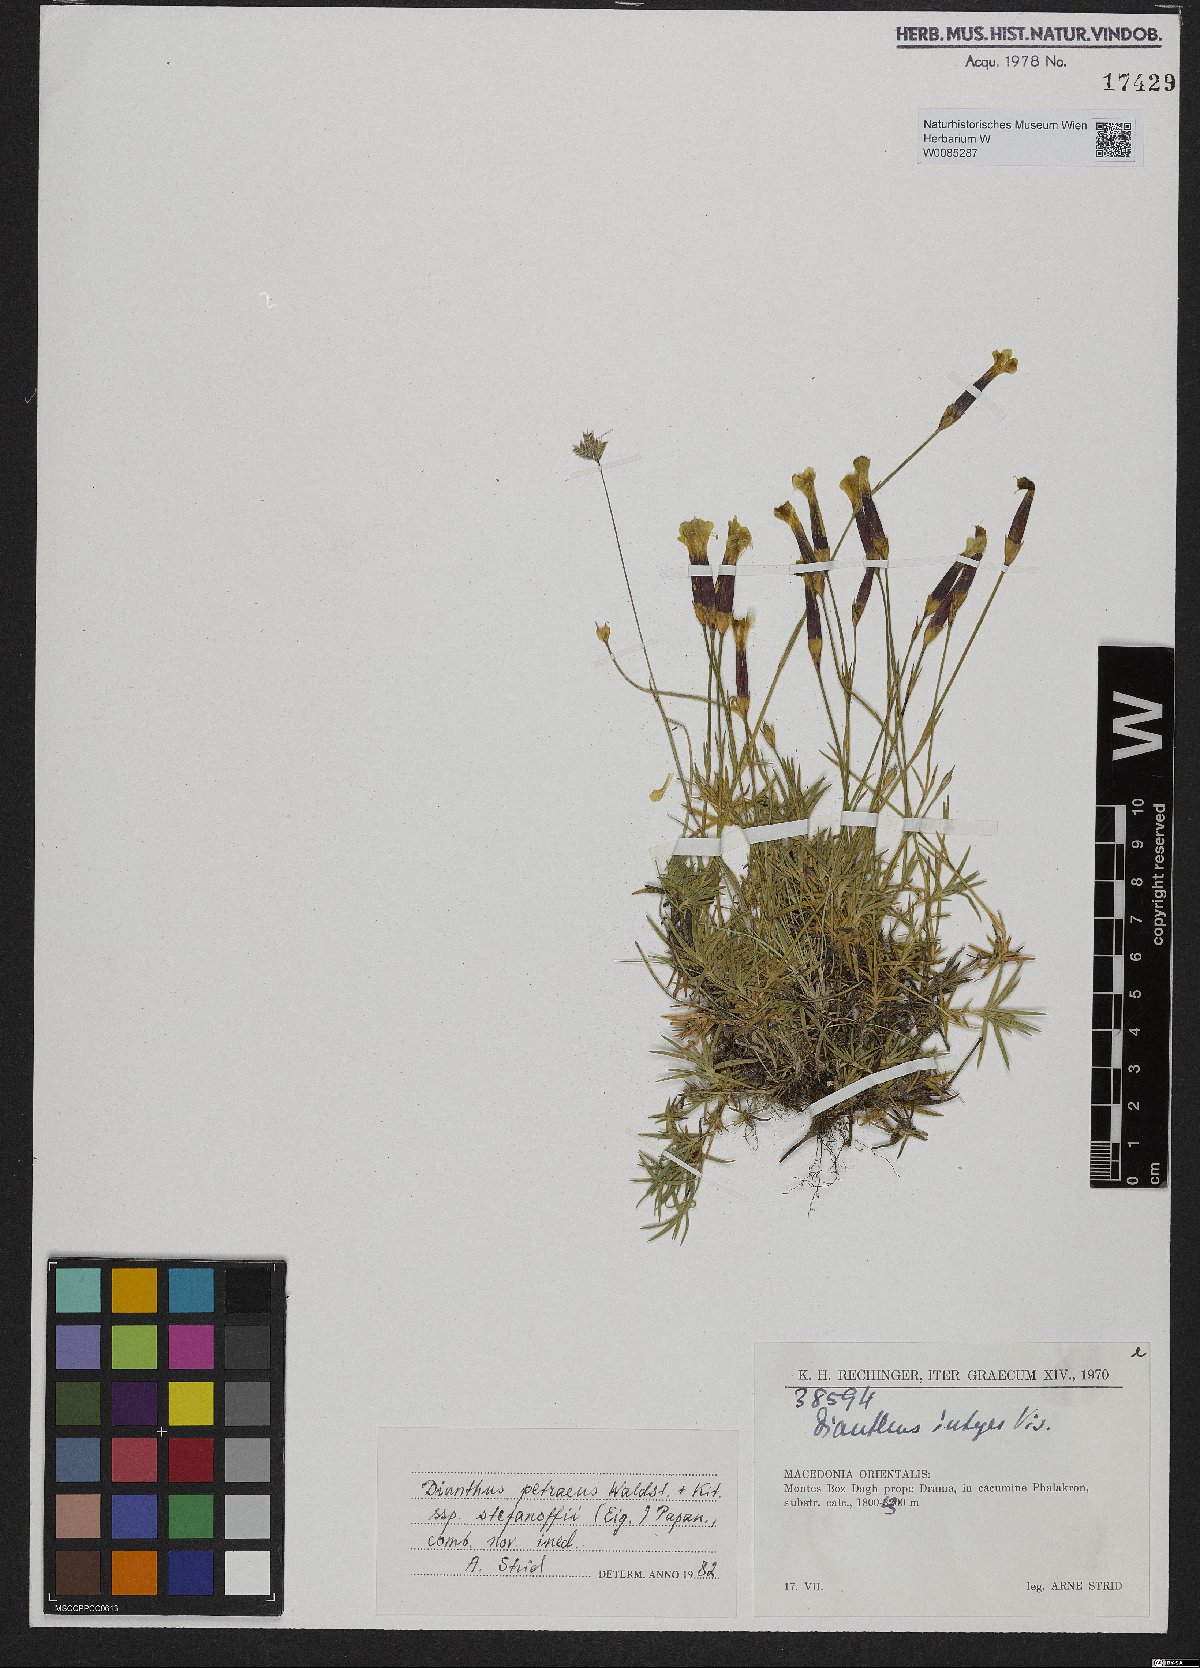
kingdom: Plantae
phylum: Tracheophyta
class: Magnoliopsida
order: Caryophyllales
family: Caryophyllaceae
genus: Dianthus
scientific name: Dianthus petraeus
